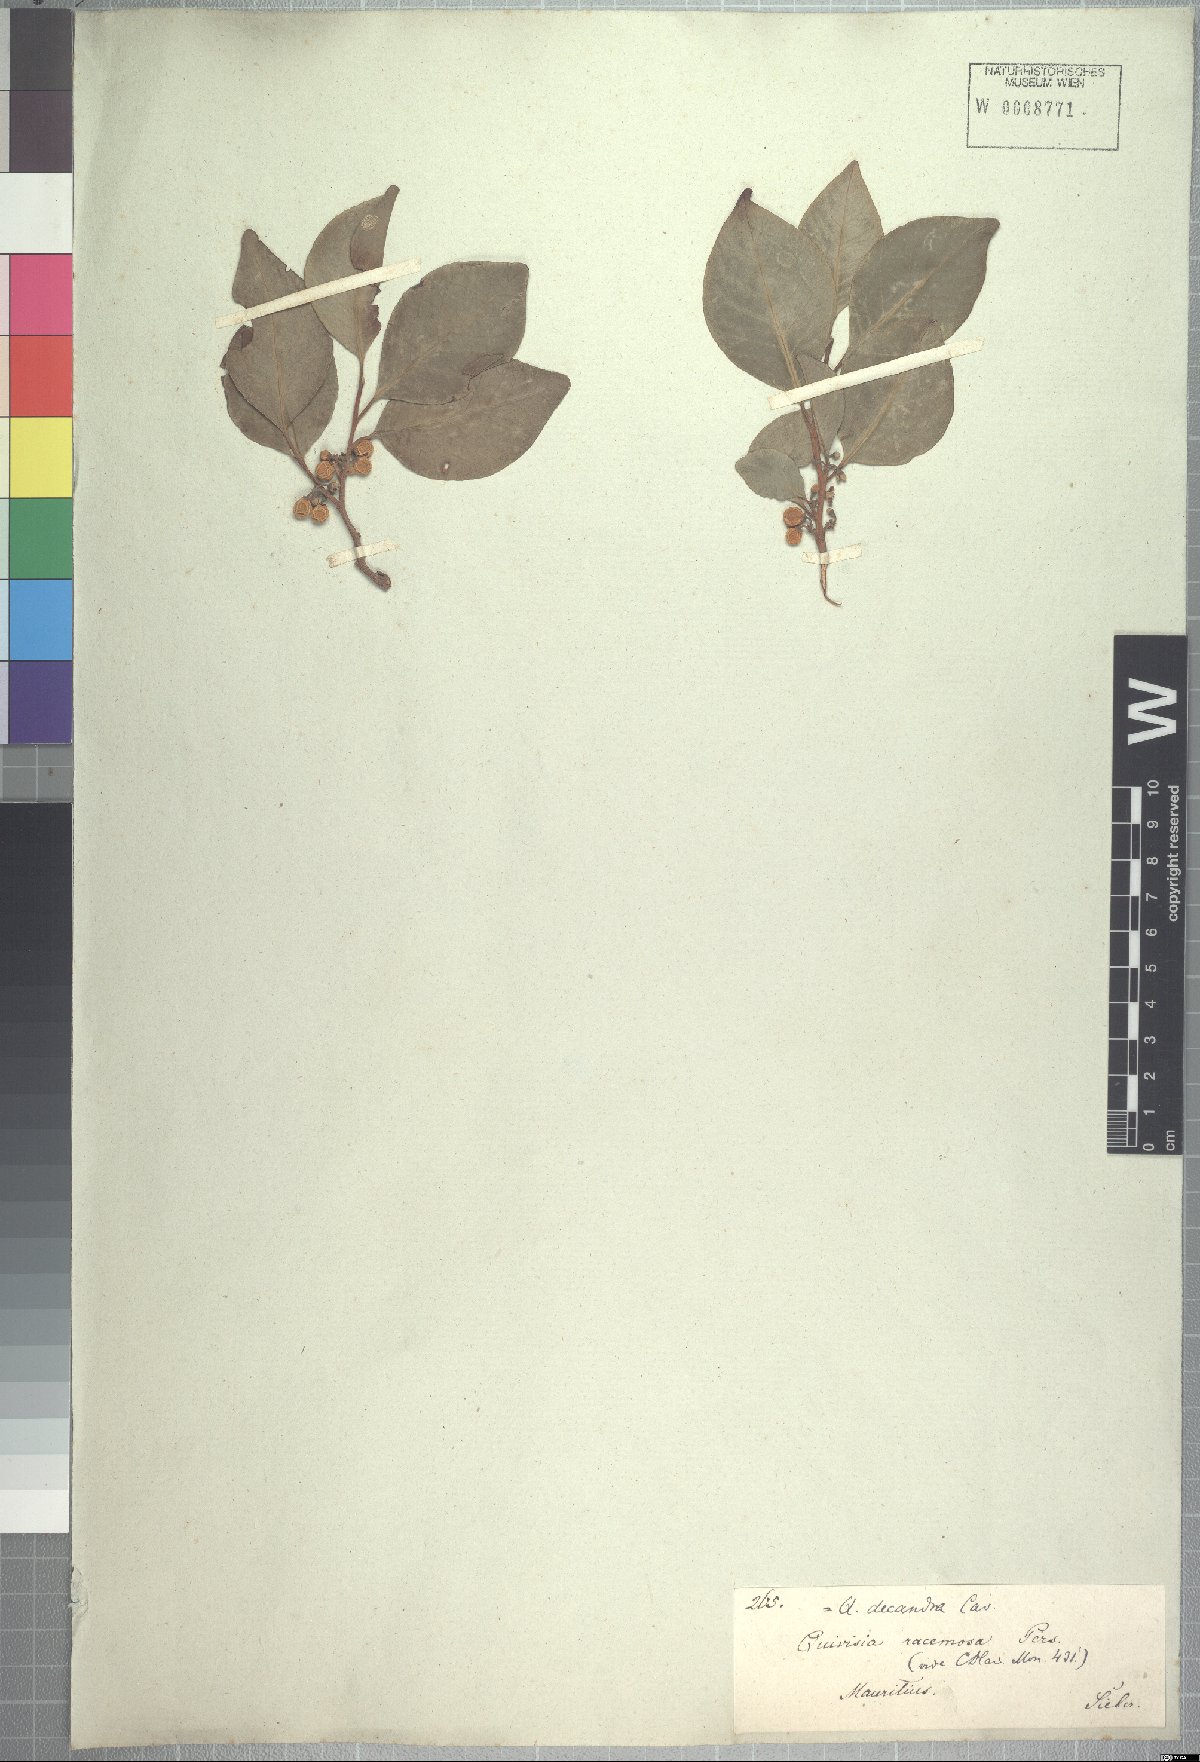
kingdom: Plantae
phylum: Tracheophyta
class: Magnoliopsida
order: Sapindales
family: Meliaceae
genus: Turraea
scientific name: Turraea rutilans
